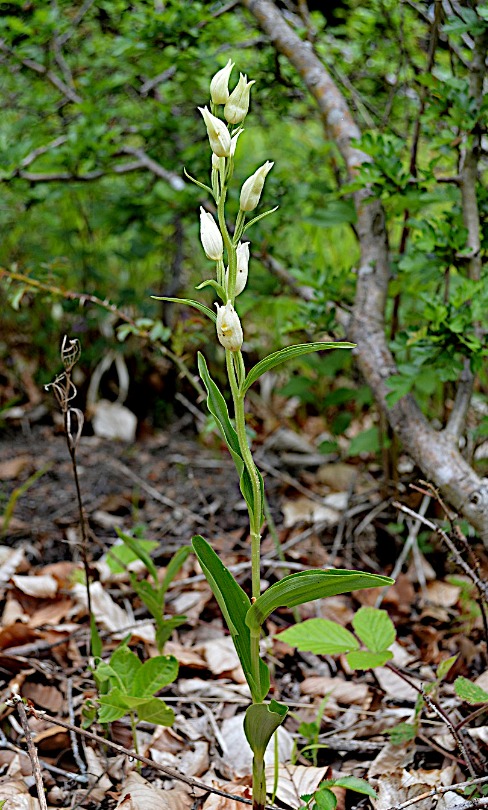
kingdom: Plantae
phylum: Tracheophyta
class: Liliopsida
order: Asparagales
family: Orchidaceae
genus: Cephalanthera
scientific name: Cephalanthera damasonium
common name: Hvidgul skovlilje
